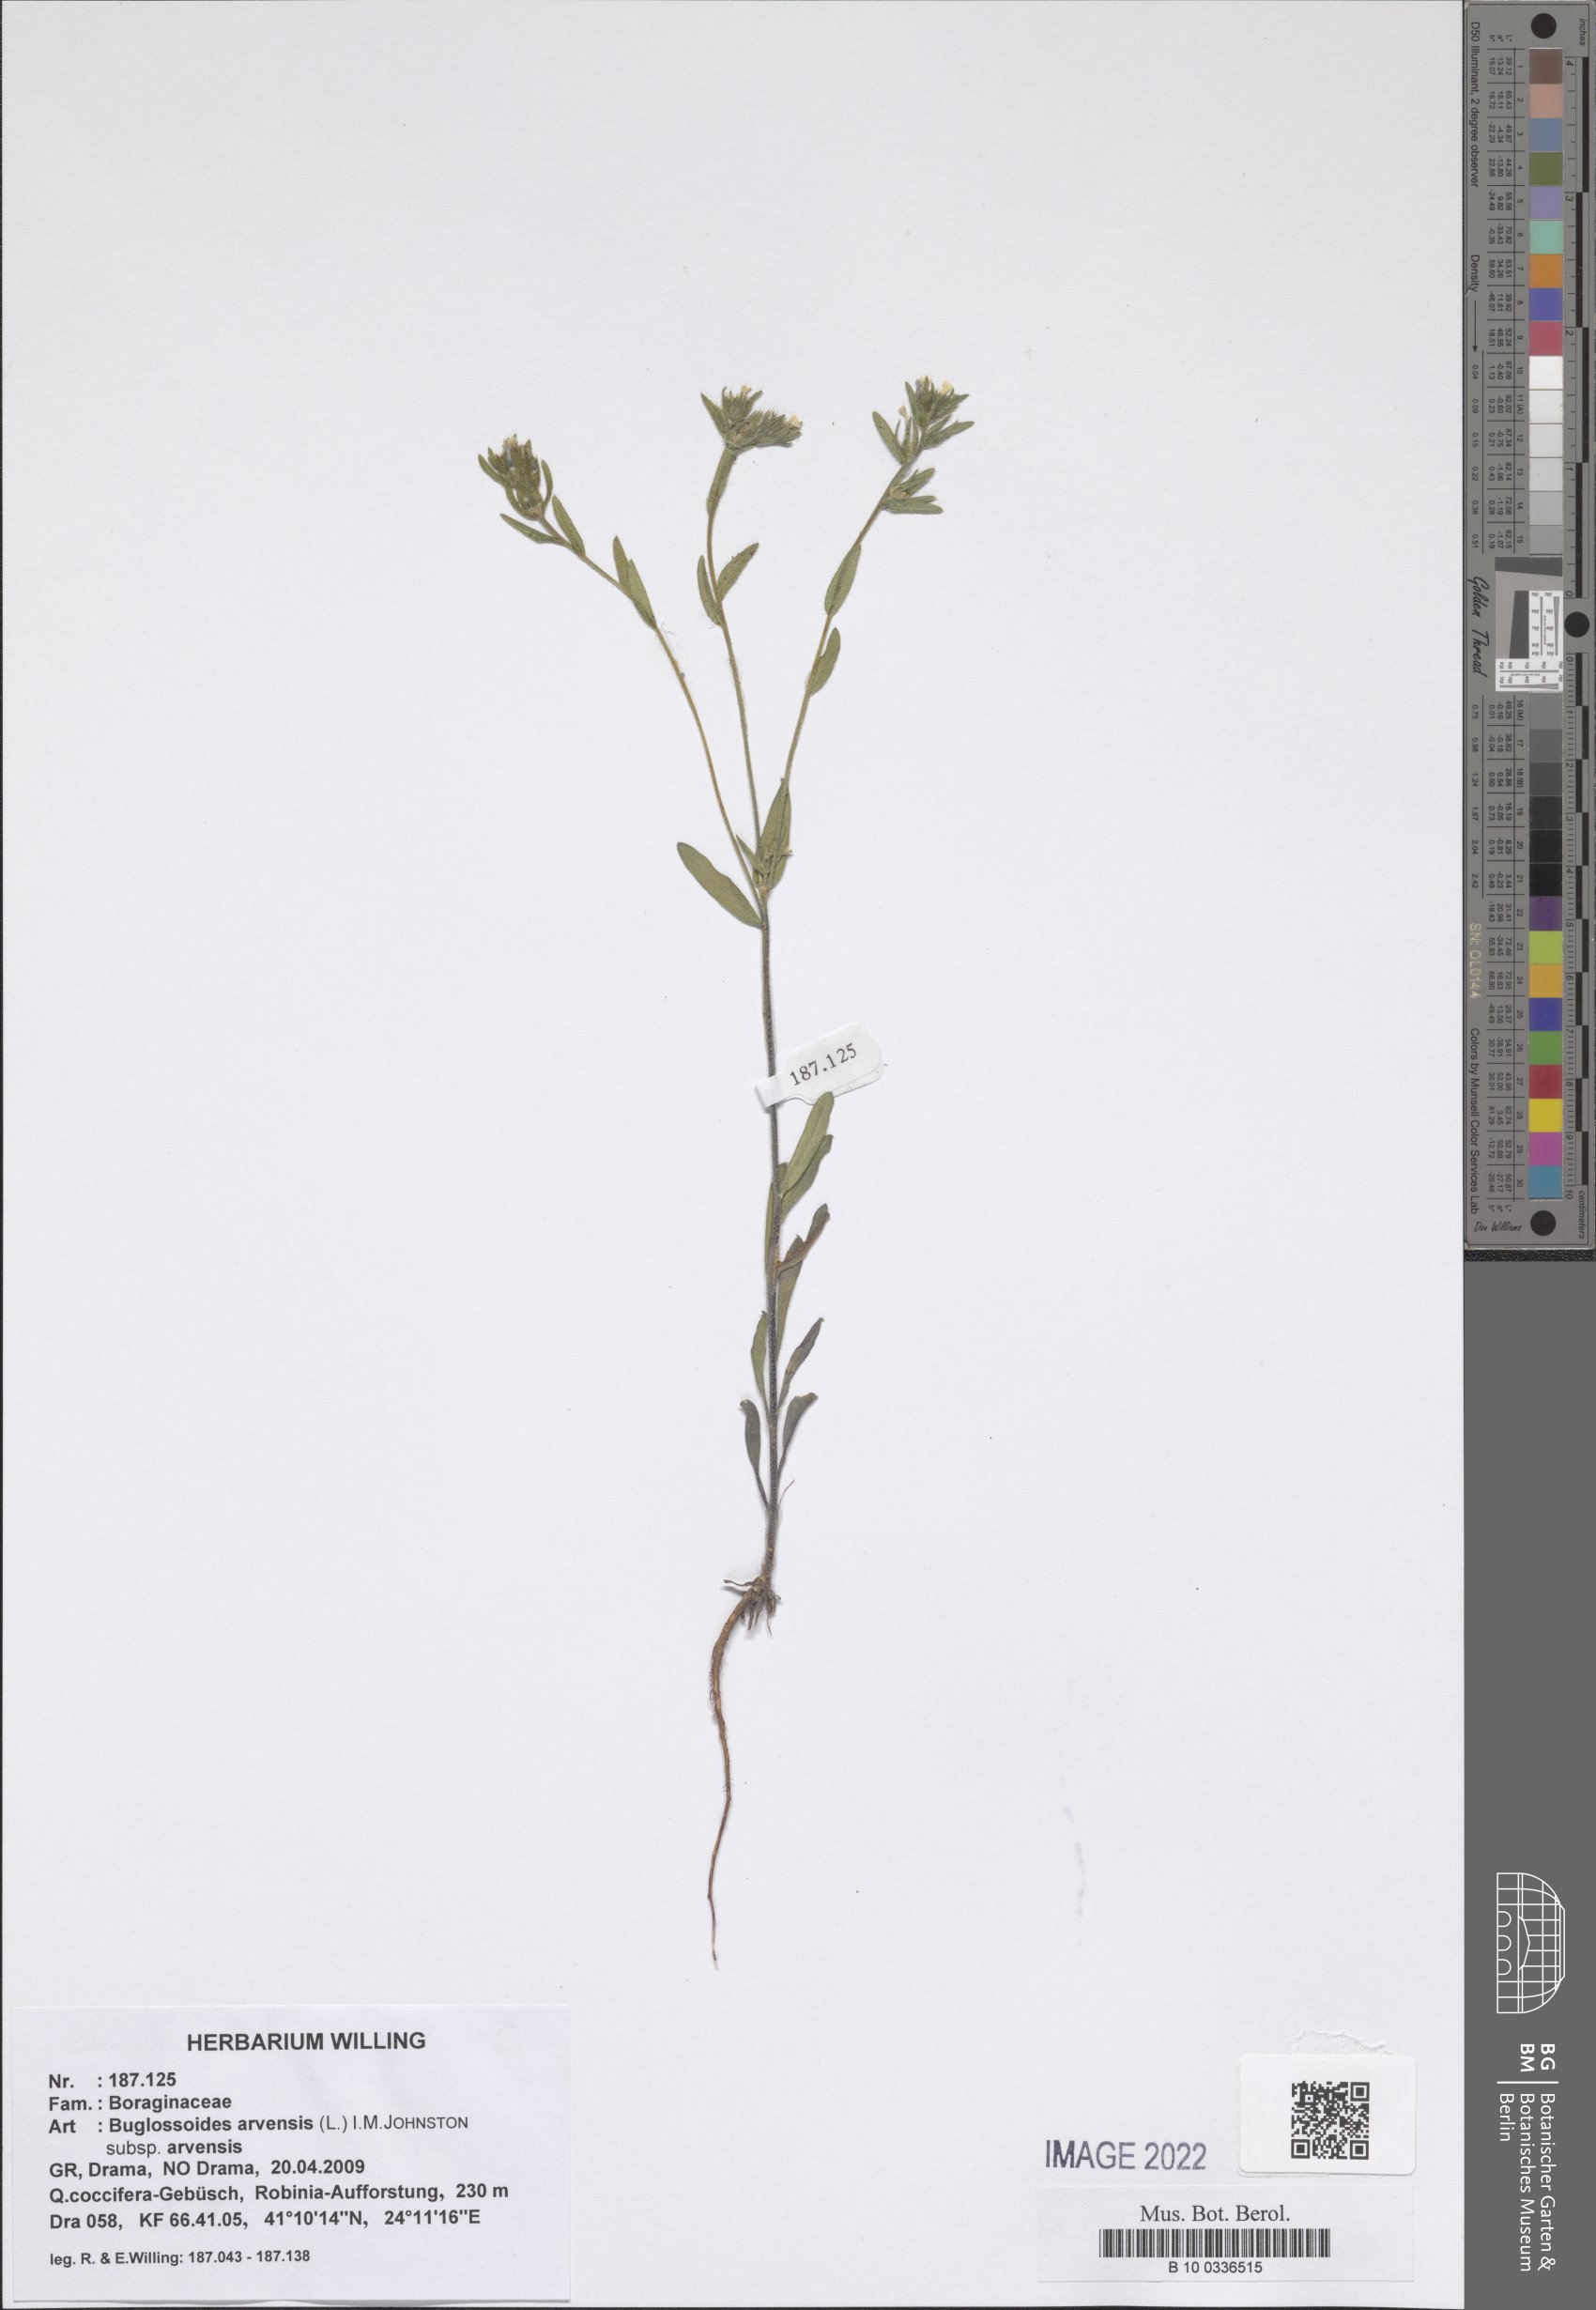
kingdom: Plantae
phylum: Tracheophyta
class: Magnoliopsida
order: Boraginales
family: Boraginaceae
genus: Buglossoides
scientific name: Buglossoides arvensis
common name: Corn gromwell
